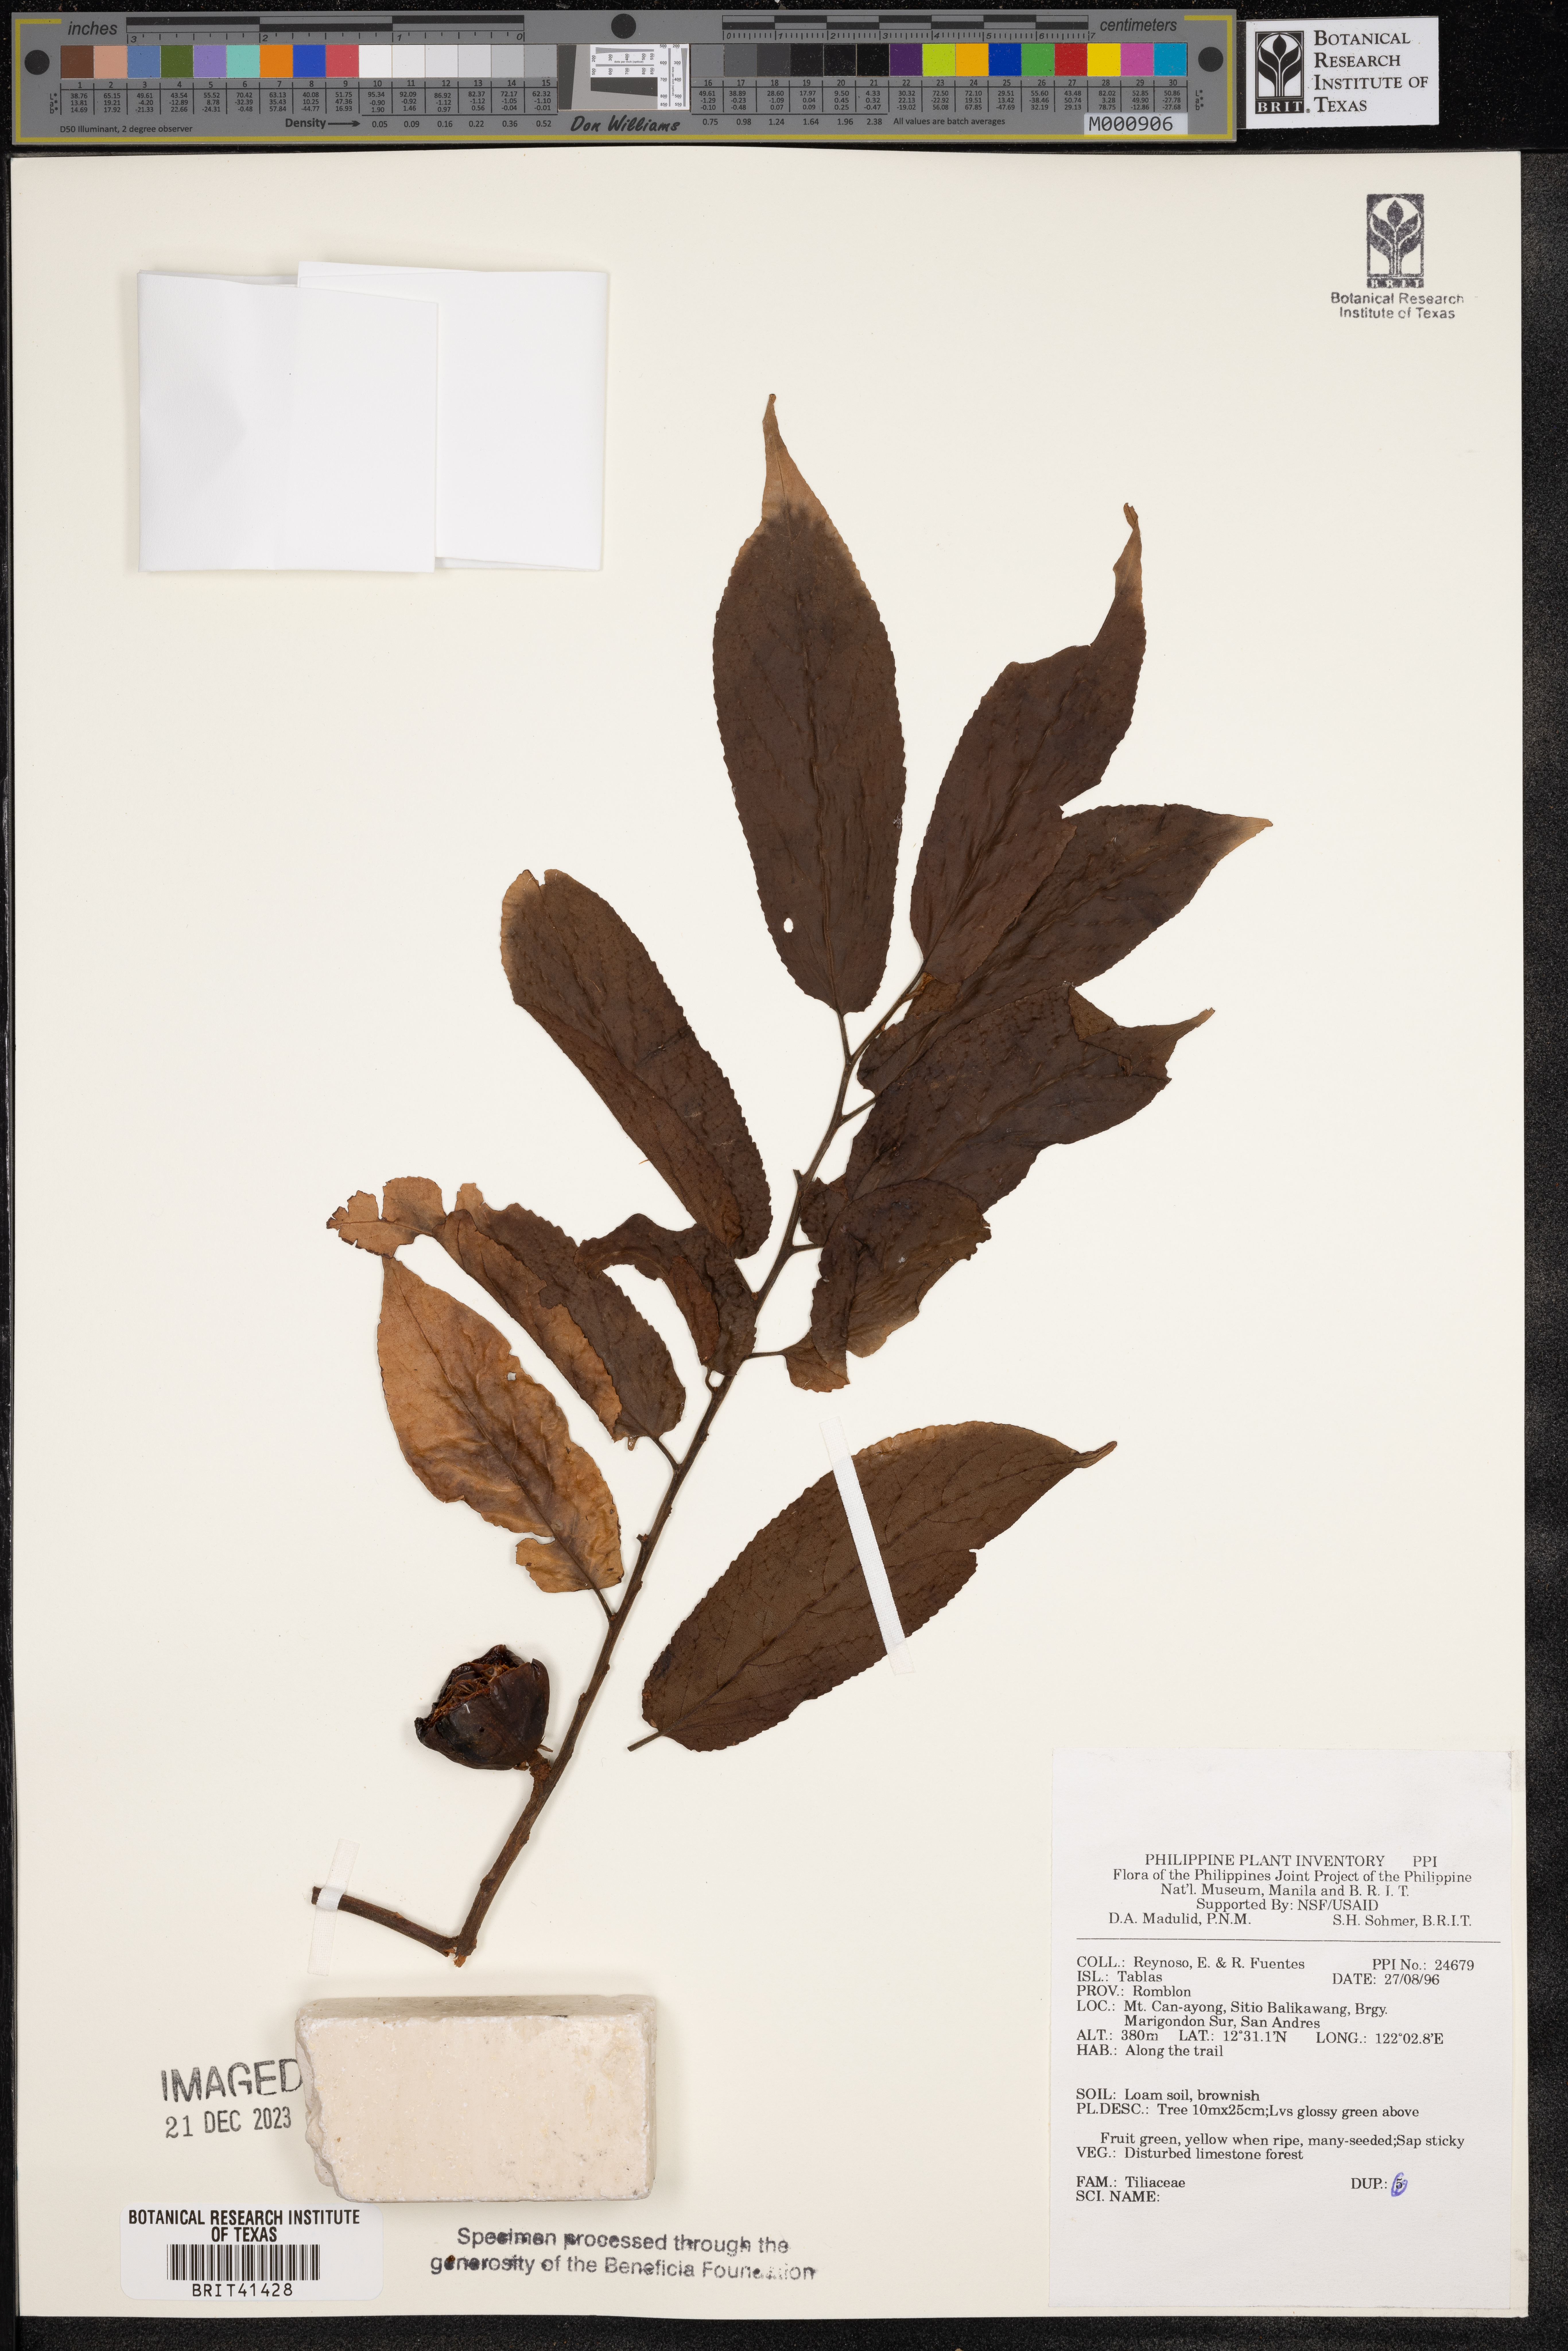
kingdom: Plantae
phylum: Tracheophyta
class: Magnoliopsida
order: Malvales
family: Tiliaceae
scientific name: Tiliaceae
